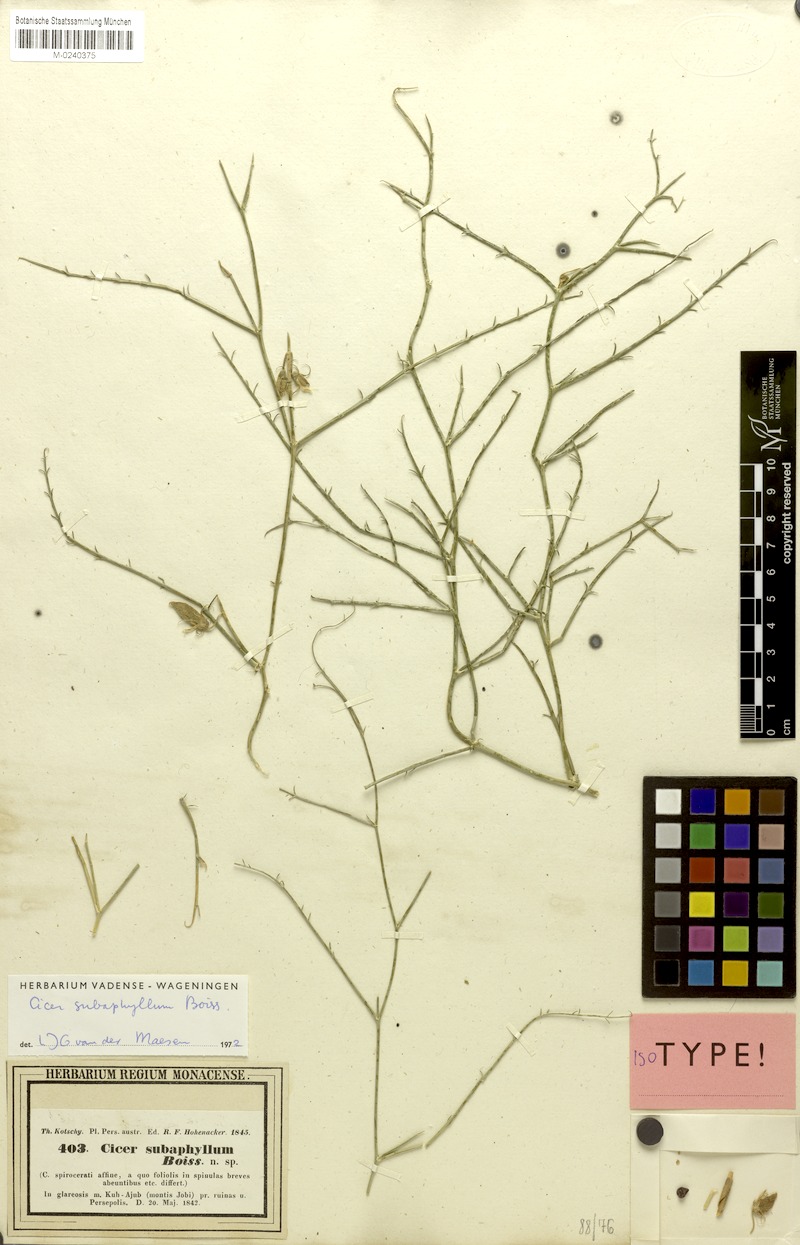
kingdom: Plantae
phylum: Tracheophyta
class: Magnoliopsida
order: Fabales
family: Fabaceae
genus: Cicer
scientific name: Cicer subaphyllum
